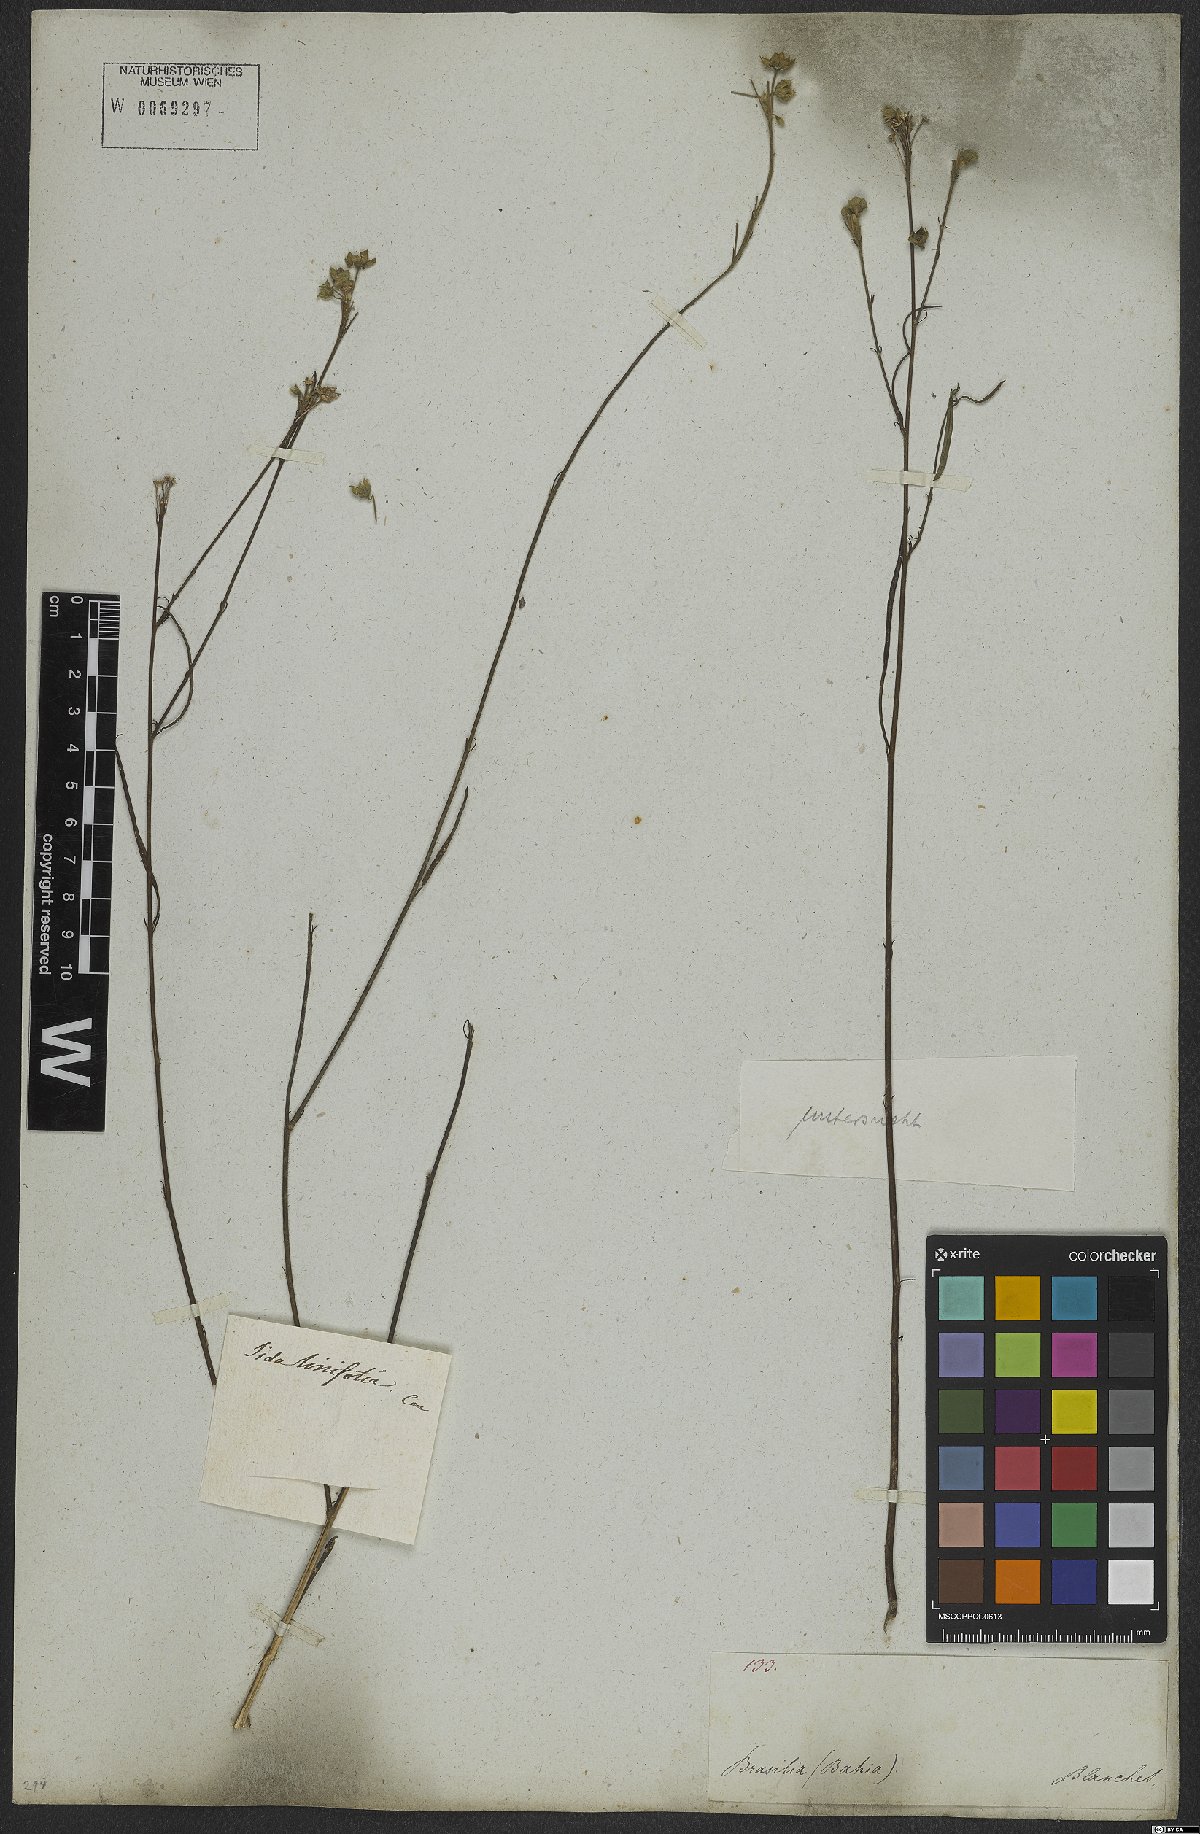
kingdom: Plantae
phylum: Tracheophyta
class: Magnoliopsida
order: Malvales
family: Malvaceae
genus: Sida
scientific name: Sida linifolia
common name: Flaxleaf fanpetals
